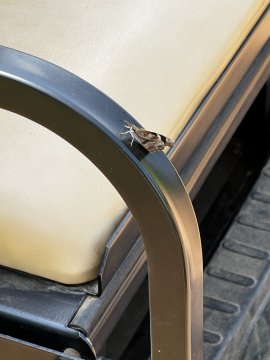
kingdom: Animalia
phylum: Arthropoda
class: Insecta
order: Lepidoptera
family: Nymphalidae
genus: Libytheana
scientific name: Libytheana carinenta
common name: American Snout
